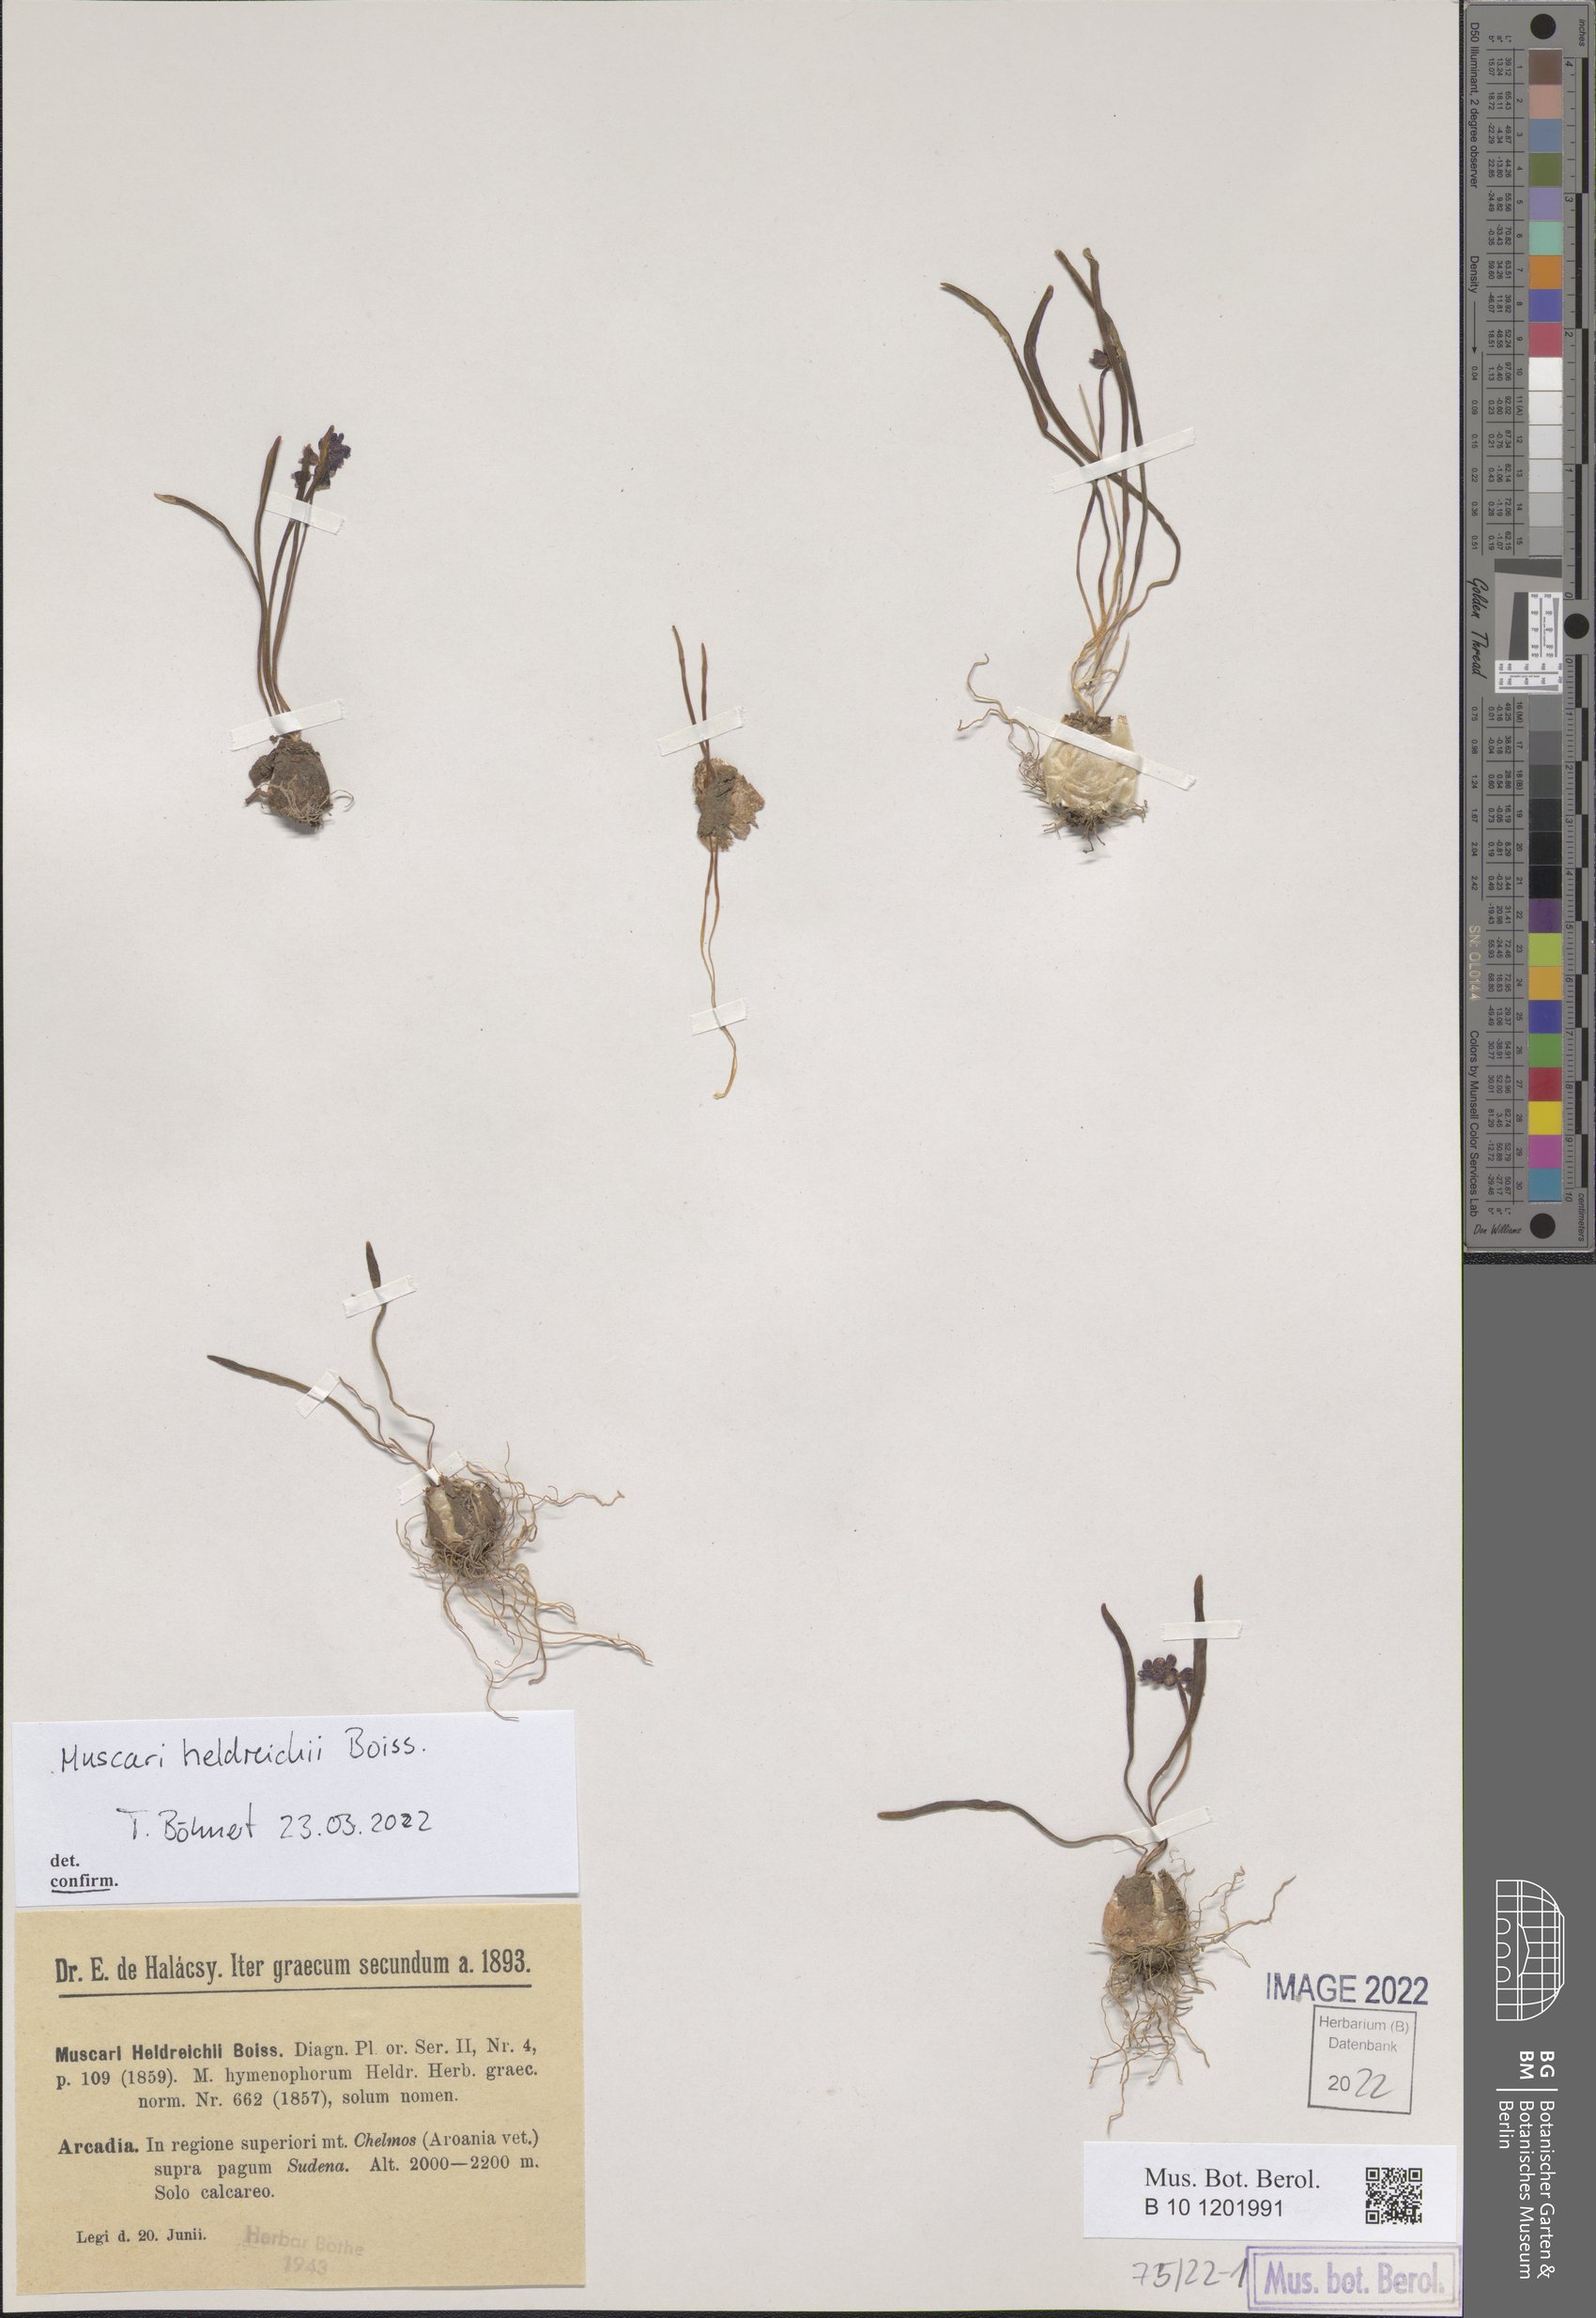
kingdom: Plantae
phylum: Tracheophyta
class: Liliopsida
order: Asparagales
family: Asparagaceae
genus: Muscari
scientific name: Muscari heldreichii
